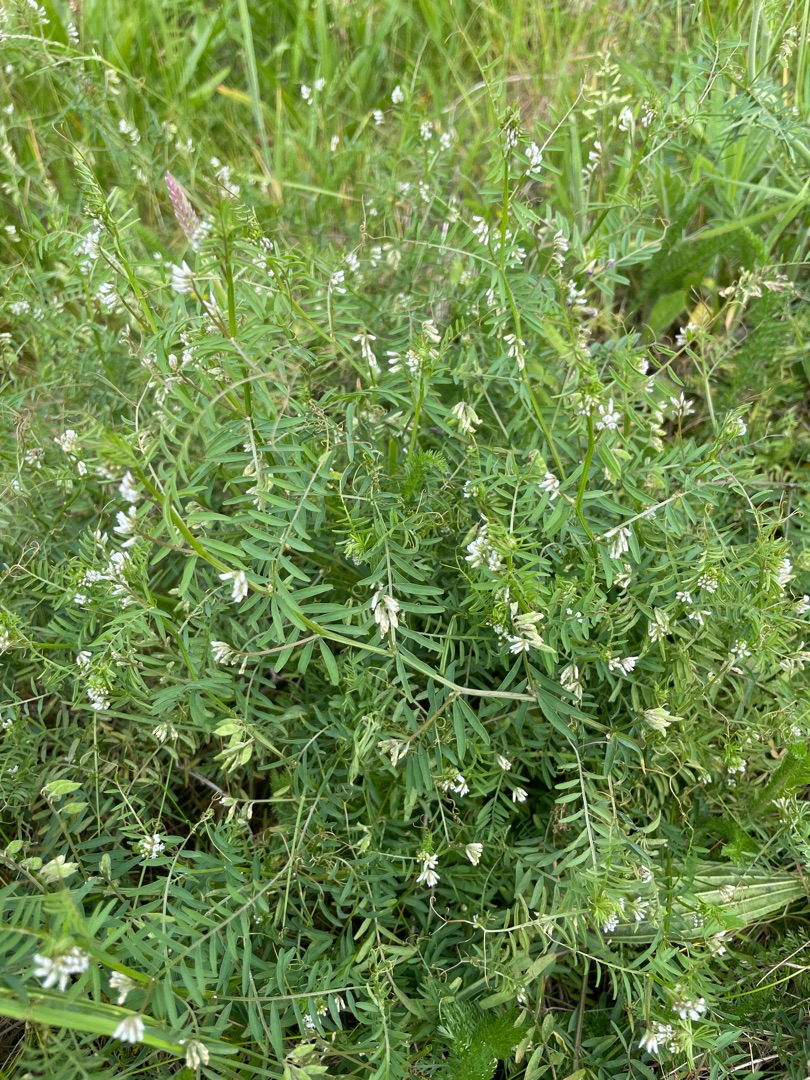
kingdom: Plantae
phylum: Tracheophyta
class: Magnoliopsida
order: Fabales
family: Fabaceae
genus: Vicia
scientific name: Vicia hirsuta
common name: Tofrøet vikke
